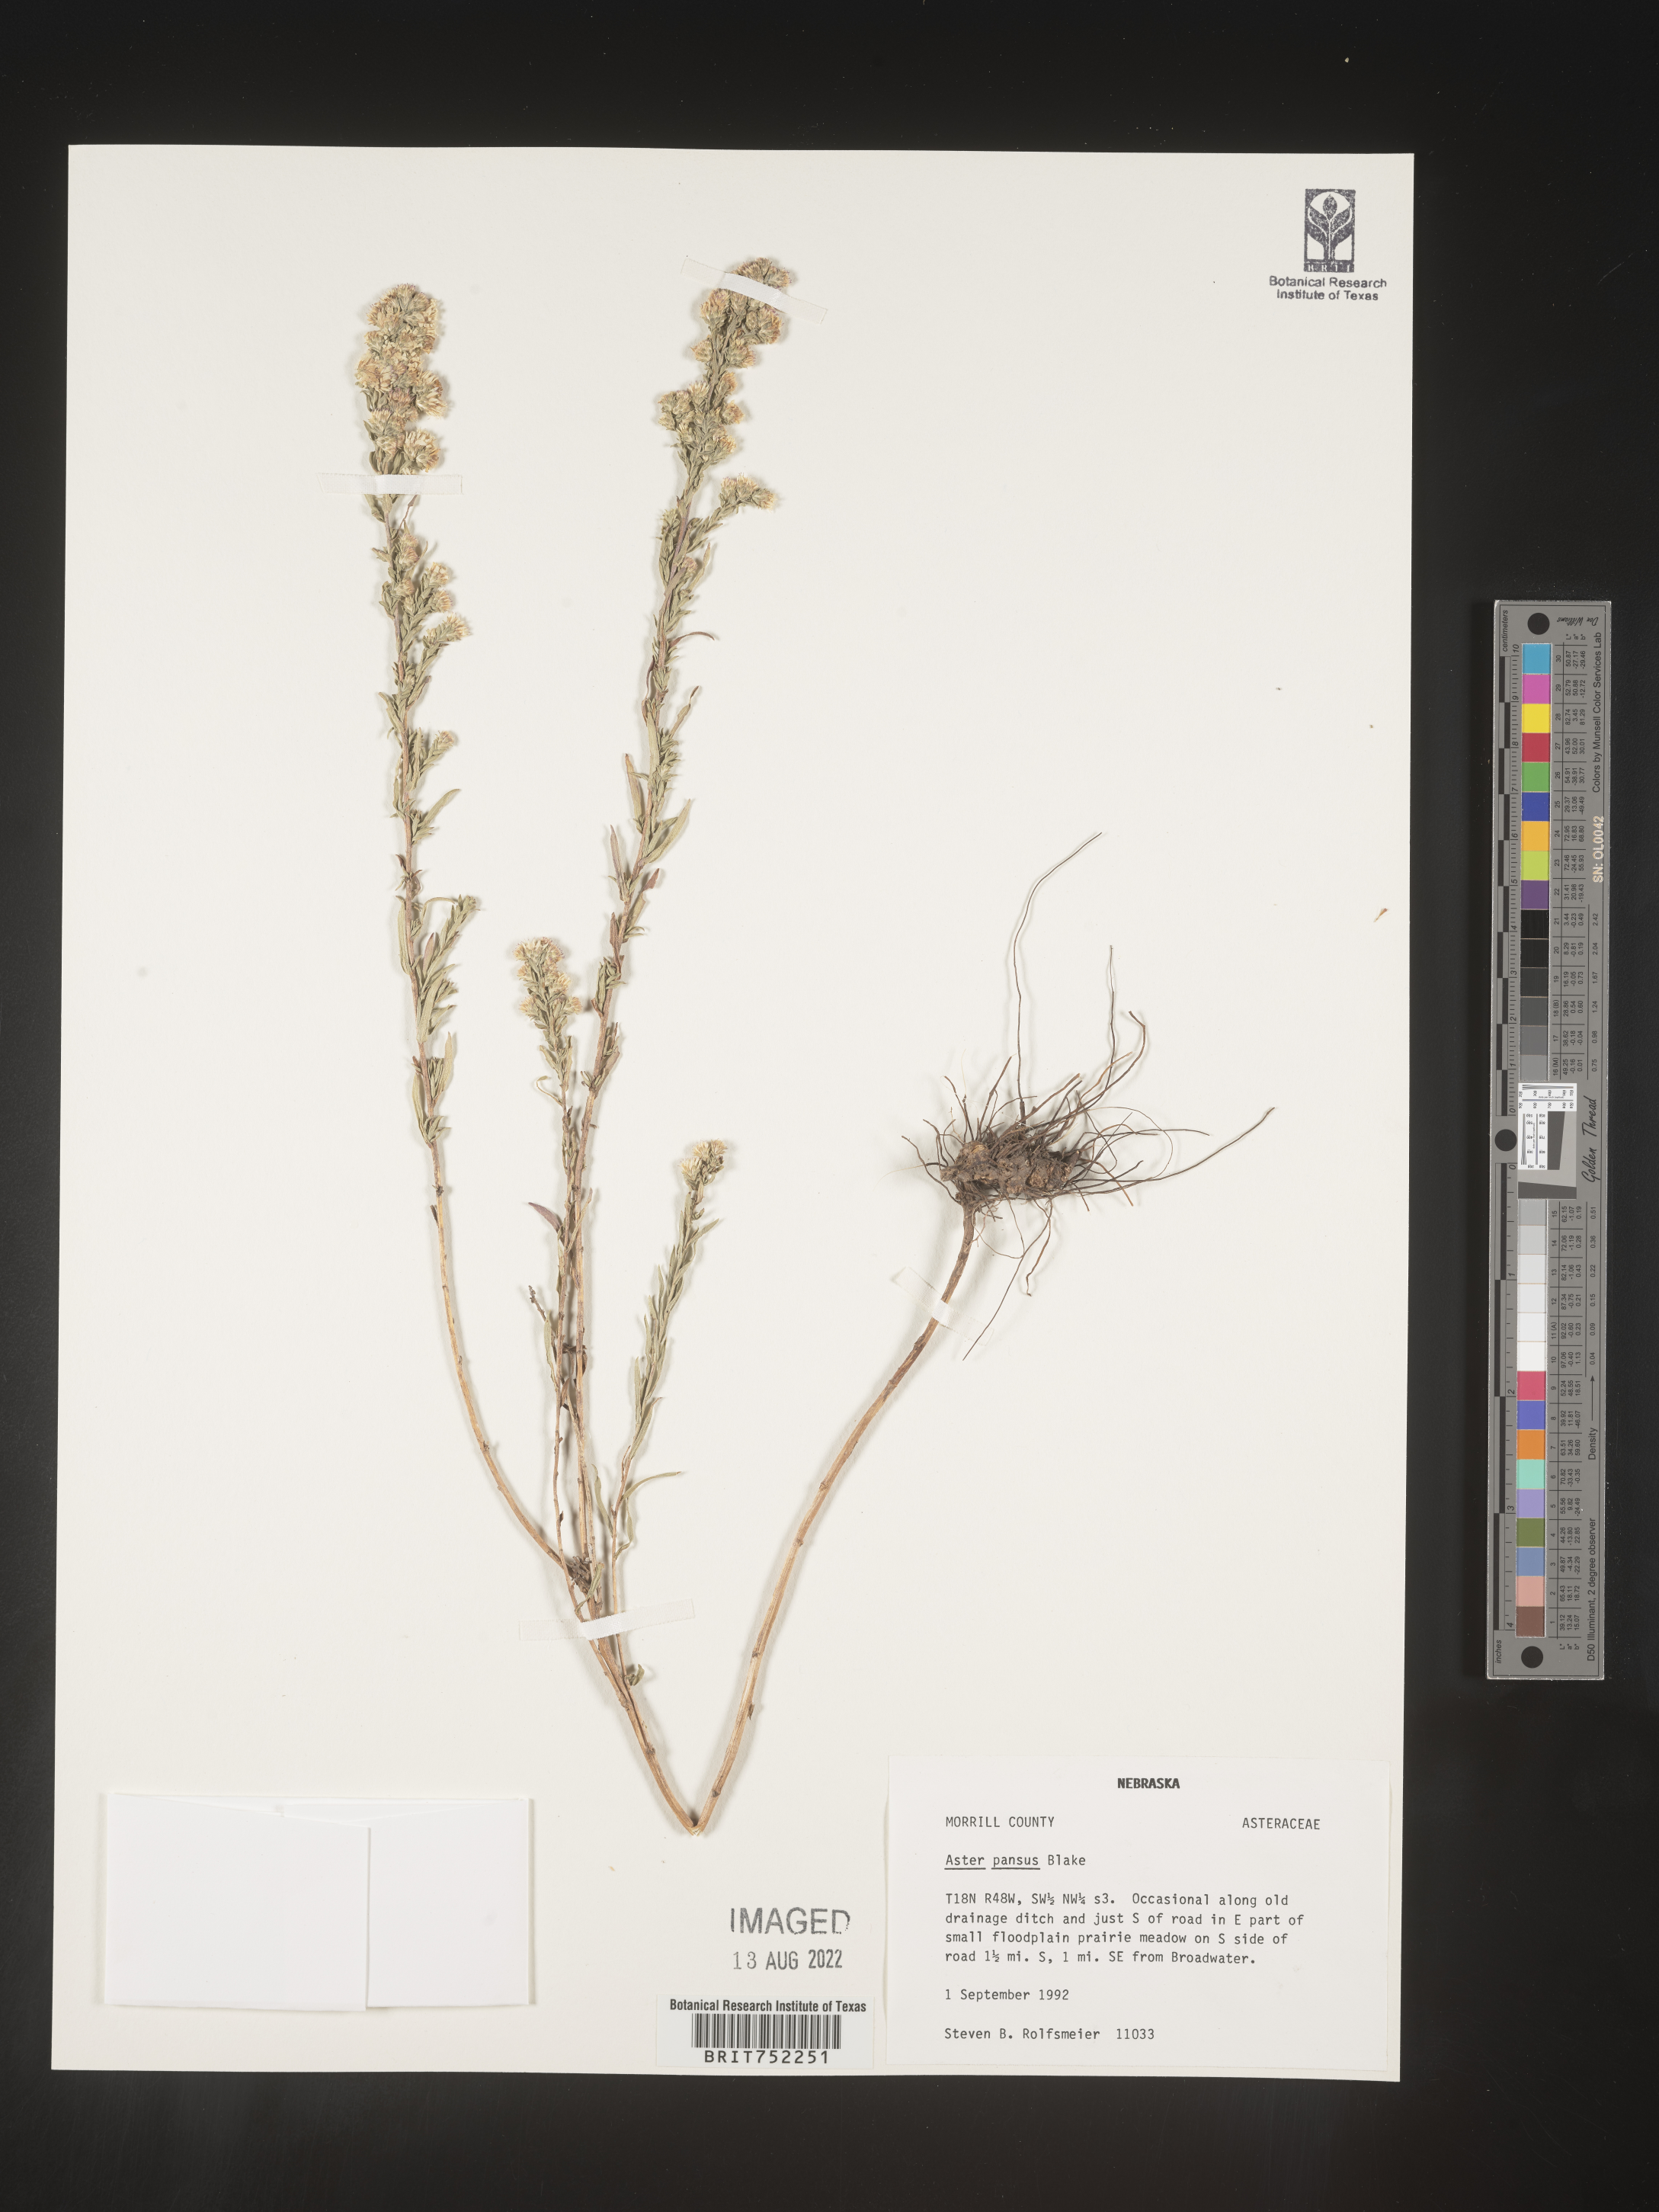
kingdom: Plantae
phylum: Tracheophyta
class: Magnoliopsida
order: Asterales
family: Asteraceae
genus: Symphyotrichum
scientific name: Symphyotrichum ericoides
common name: Heath aster
